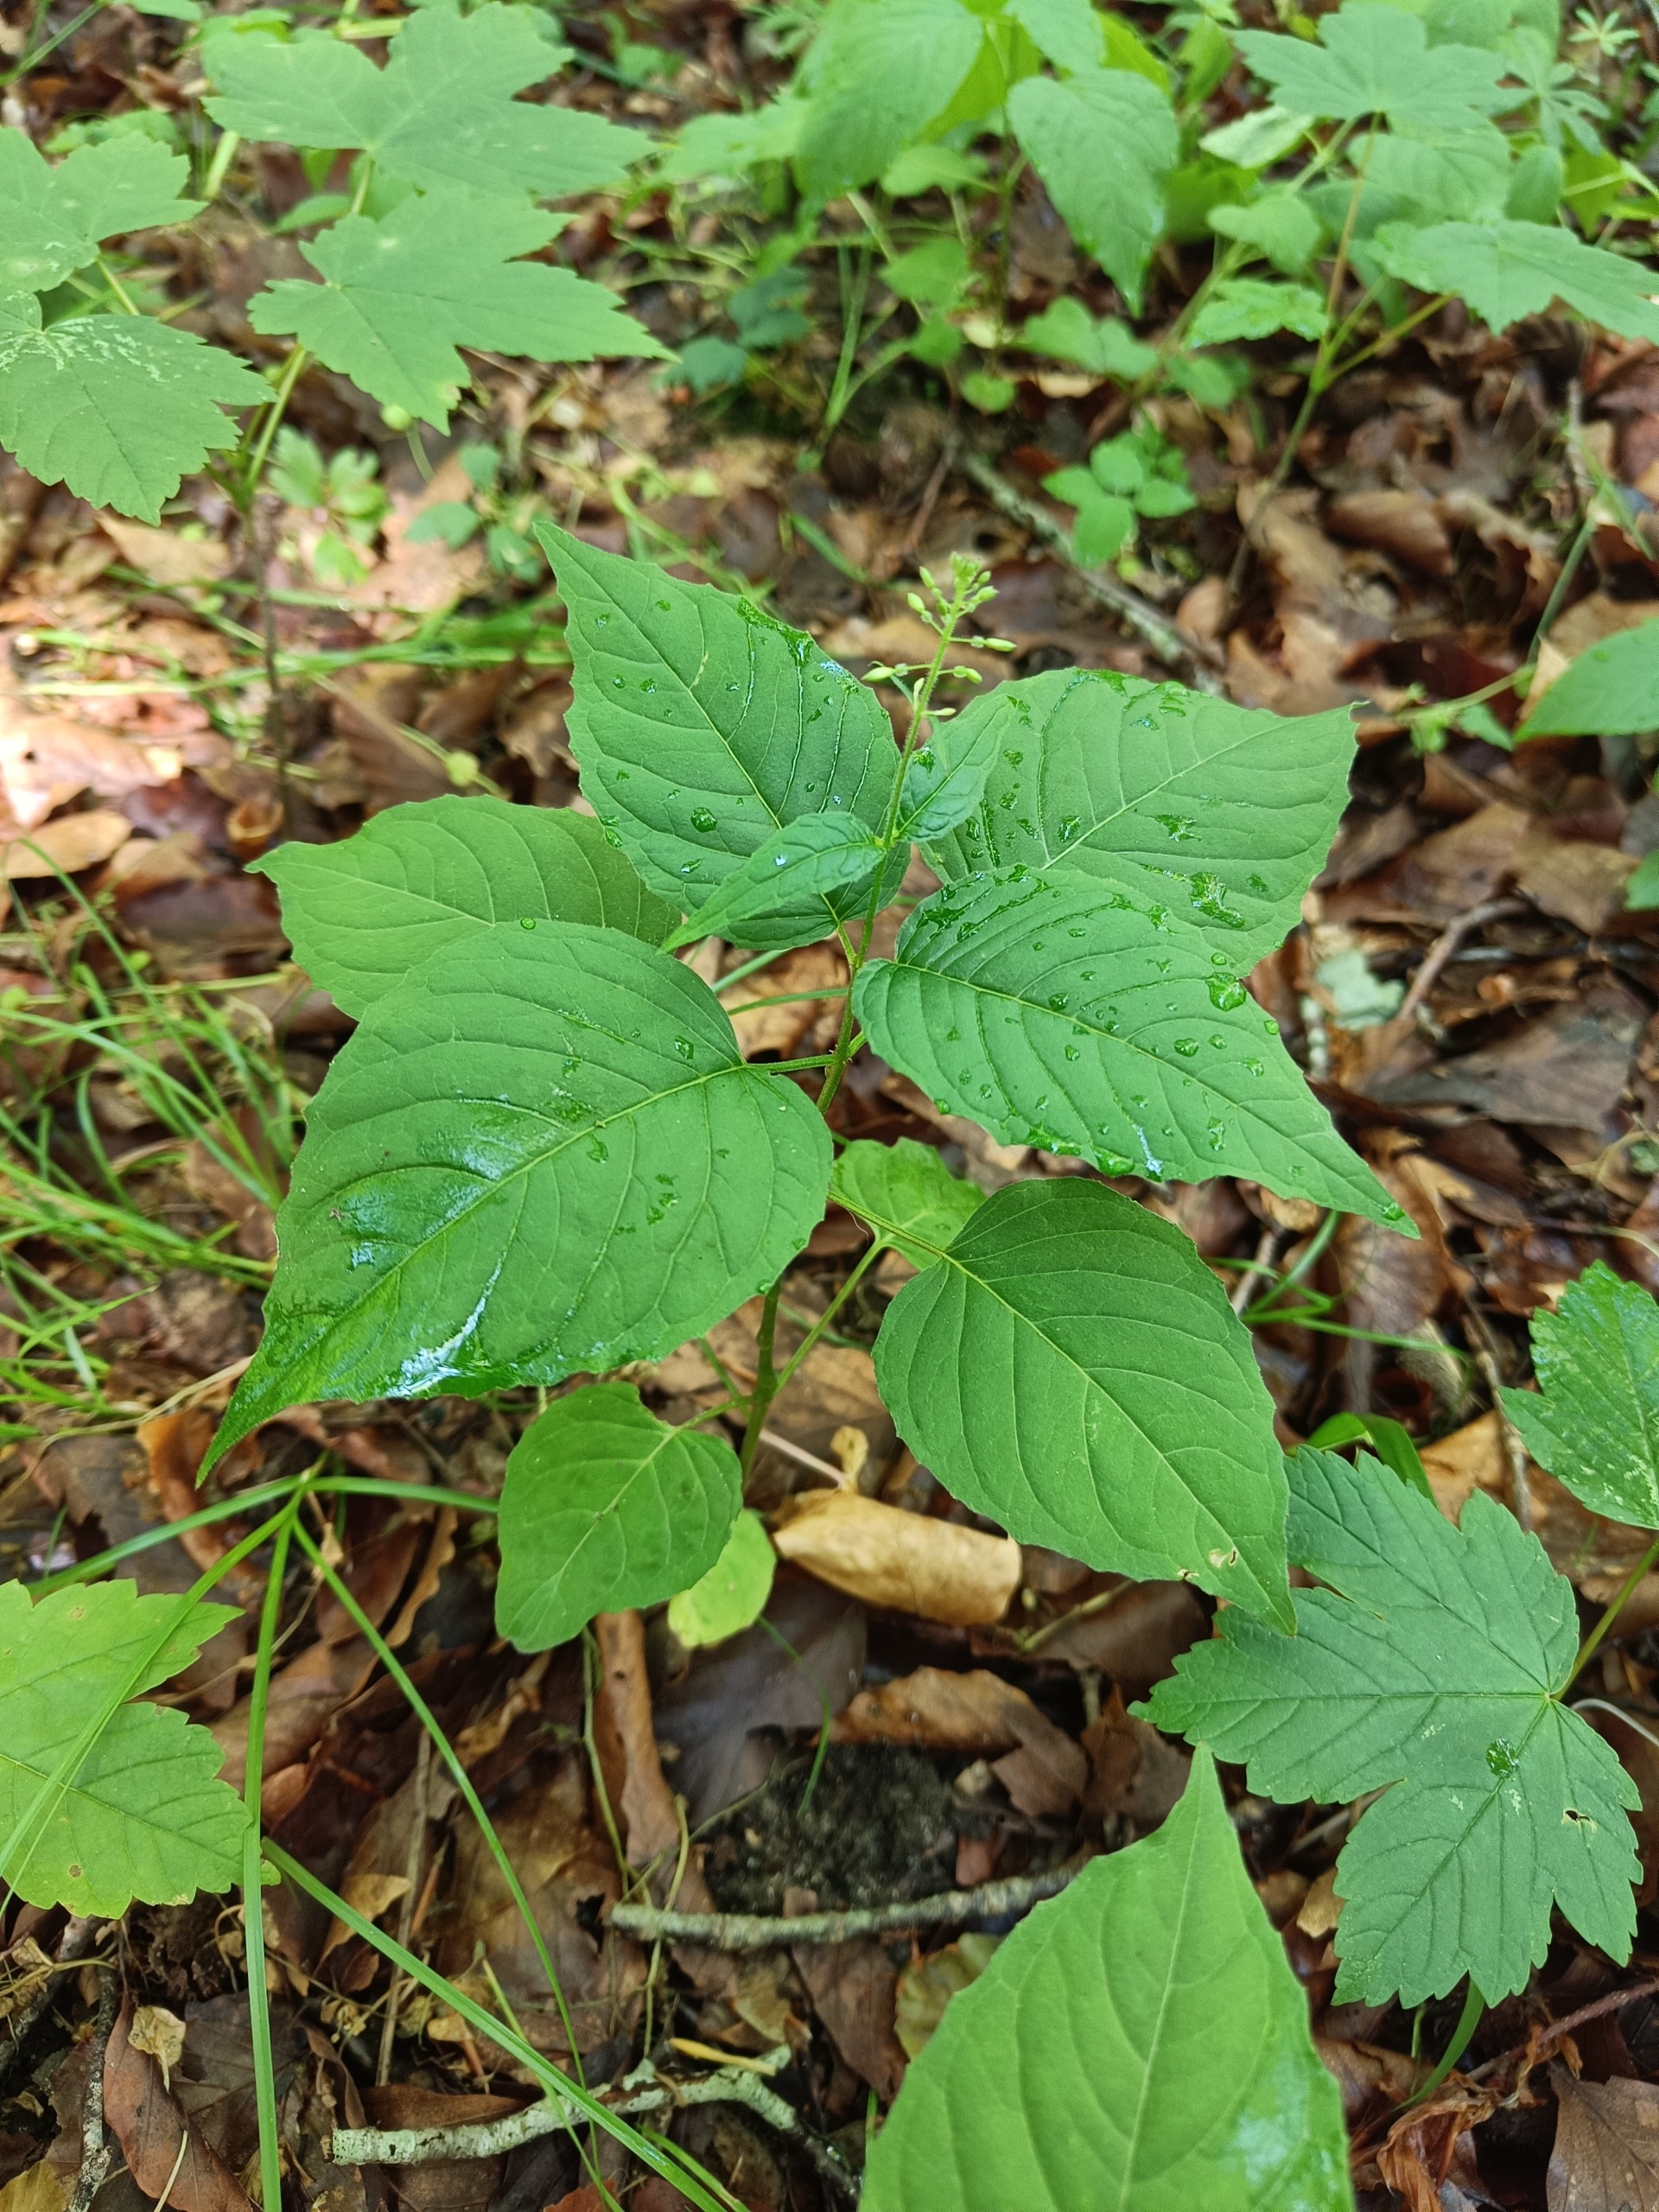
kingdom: Plantae
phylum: Tracheophyta
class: Magnoliopsida
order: Myrtales
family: Onagraceae
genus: Circaea
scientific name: Circaea lutetiana
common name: Dunet steffensurt
